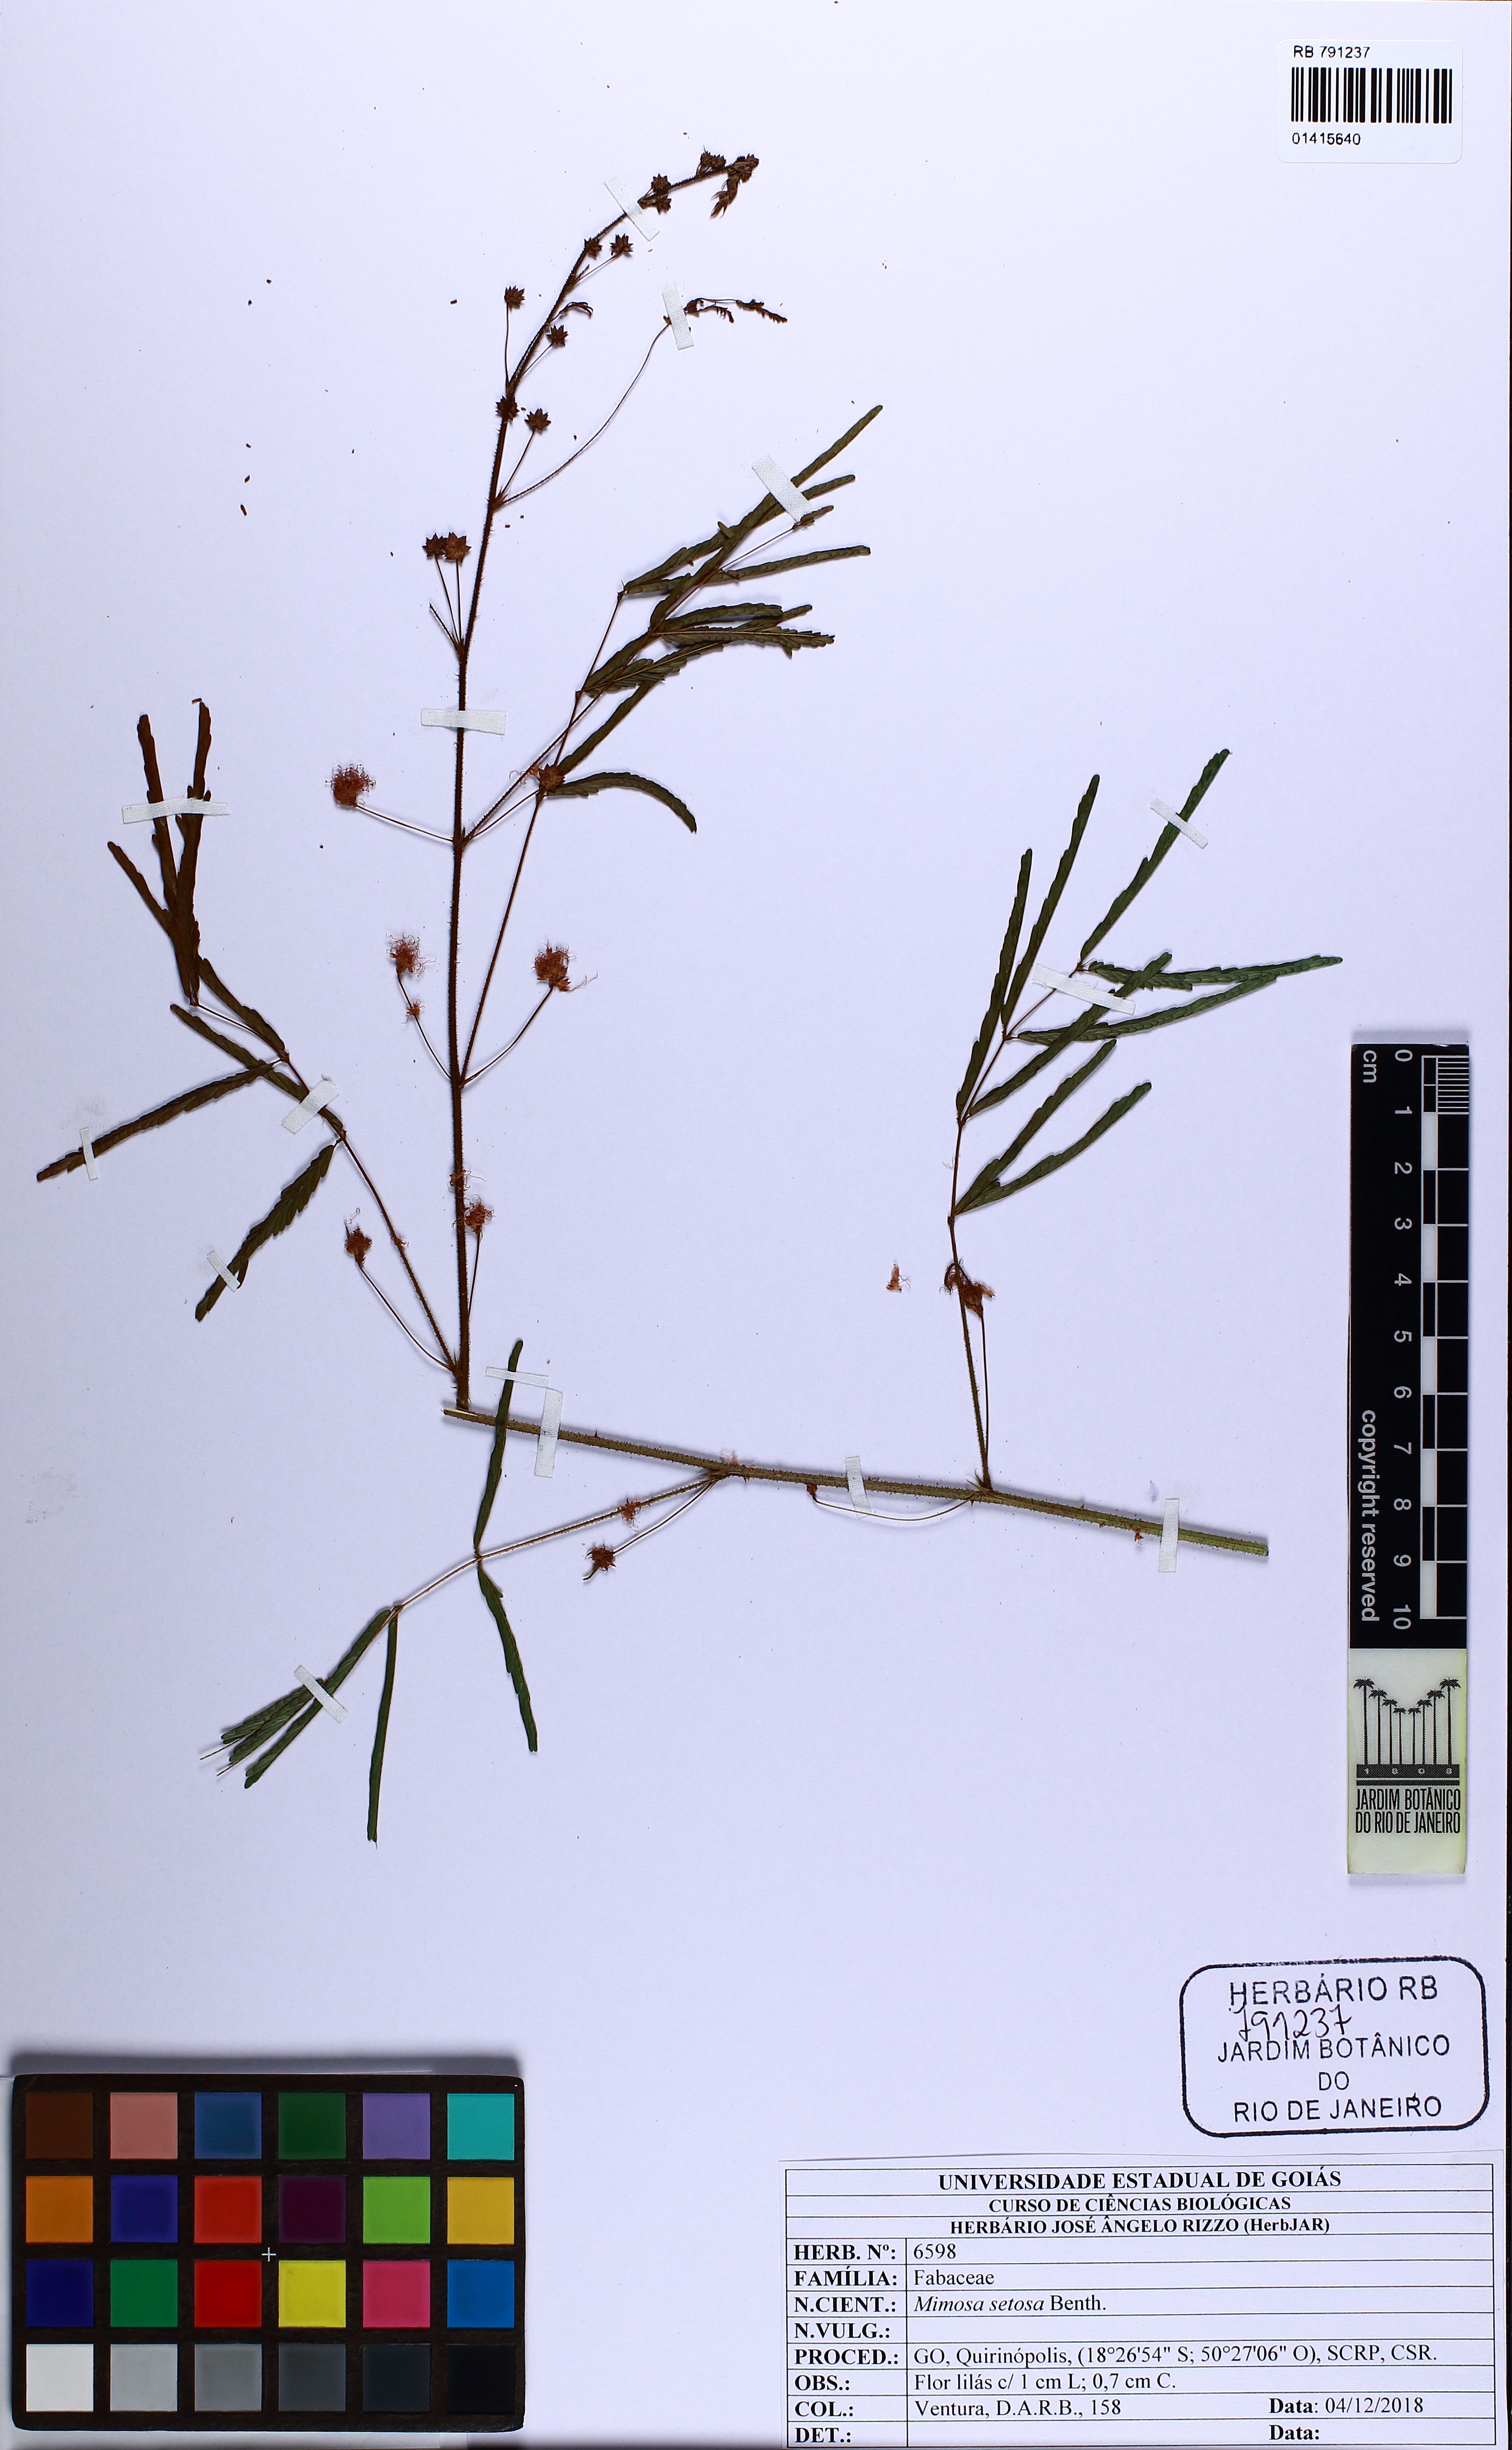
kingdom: Plantae
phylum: Tracheophyta
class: Magnoliopsida
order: Fabales
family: Fabaceae
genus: Mimosa
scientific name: Mimosa setosa
